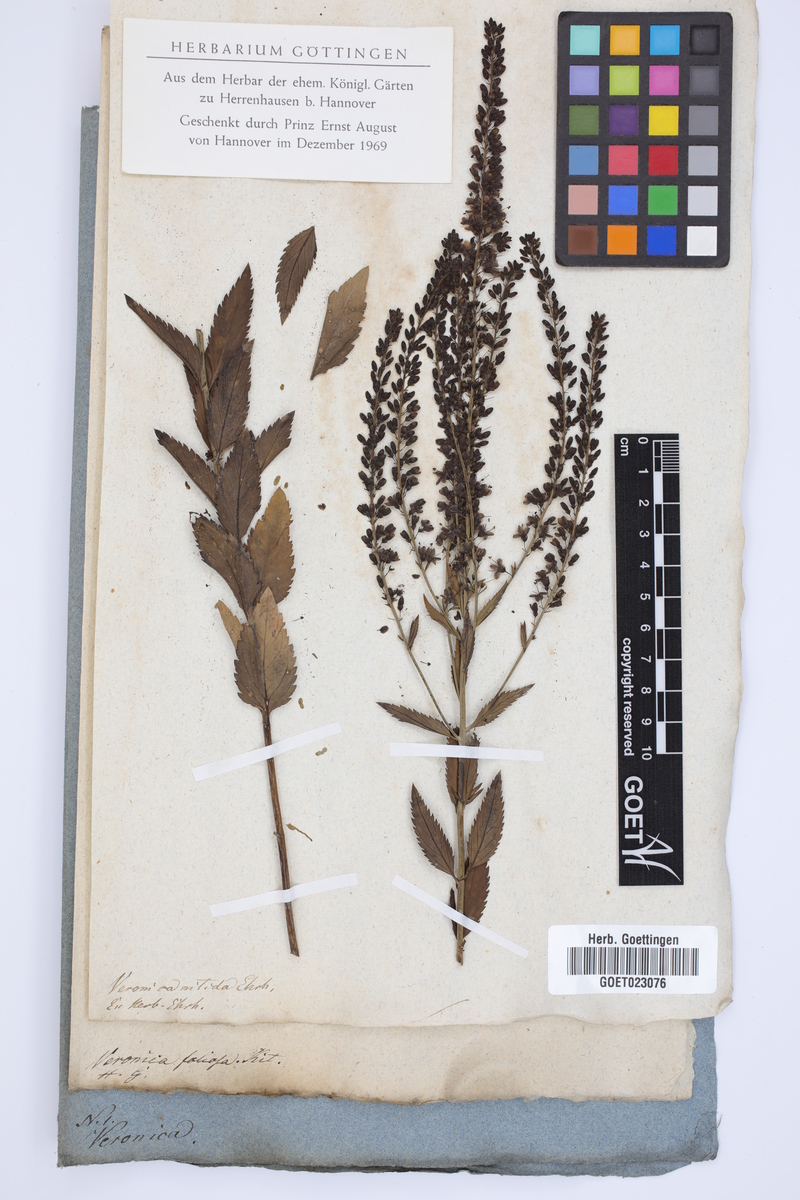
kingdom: Plantae
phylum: Tracheophyta
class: Magnoliopsida
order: Lamiales
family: Plantaginaceae
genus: Veronica
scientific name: Veronica spuria
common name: Bastard speedwell
